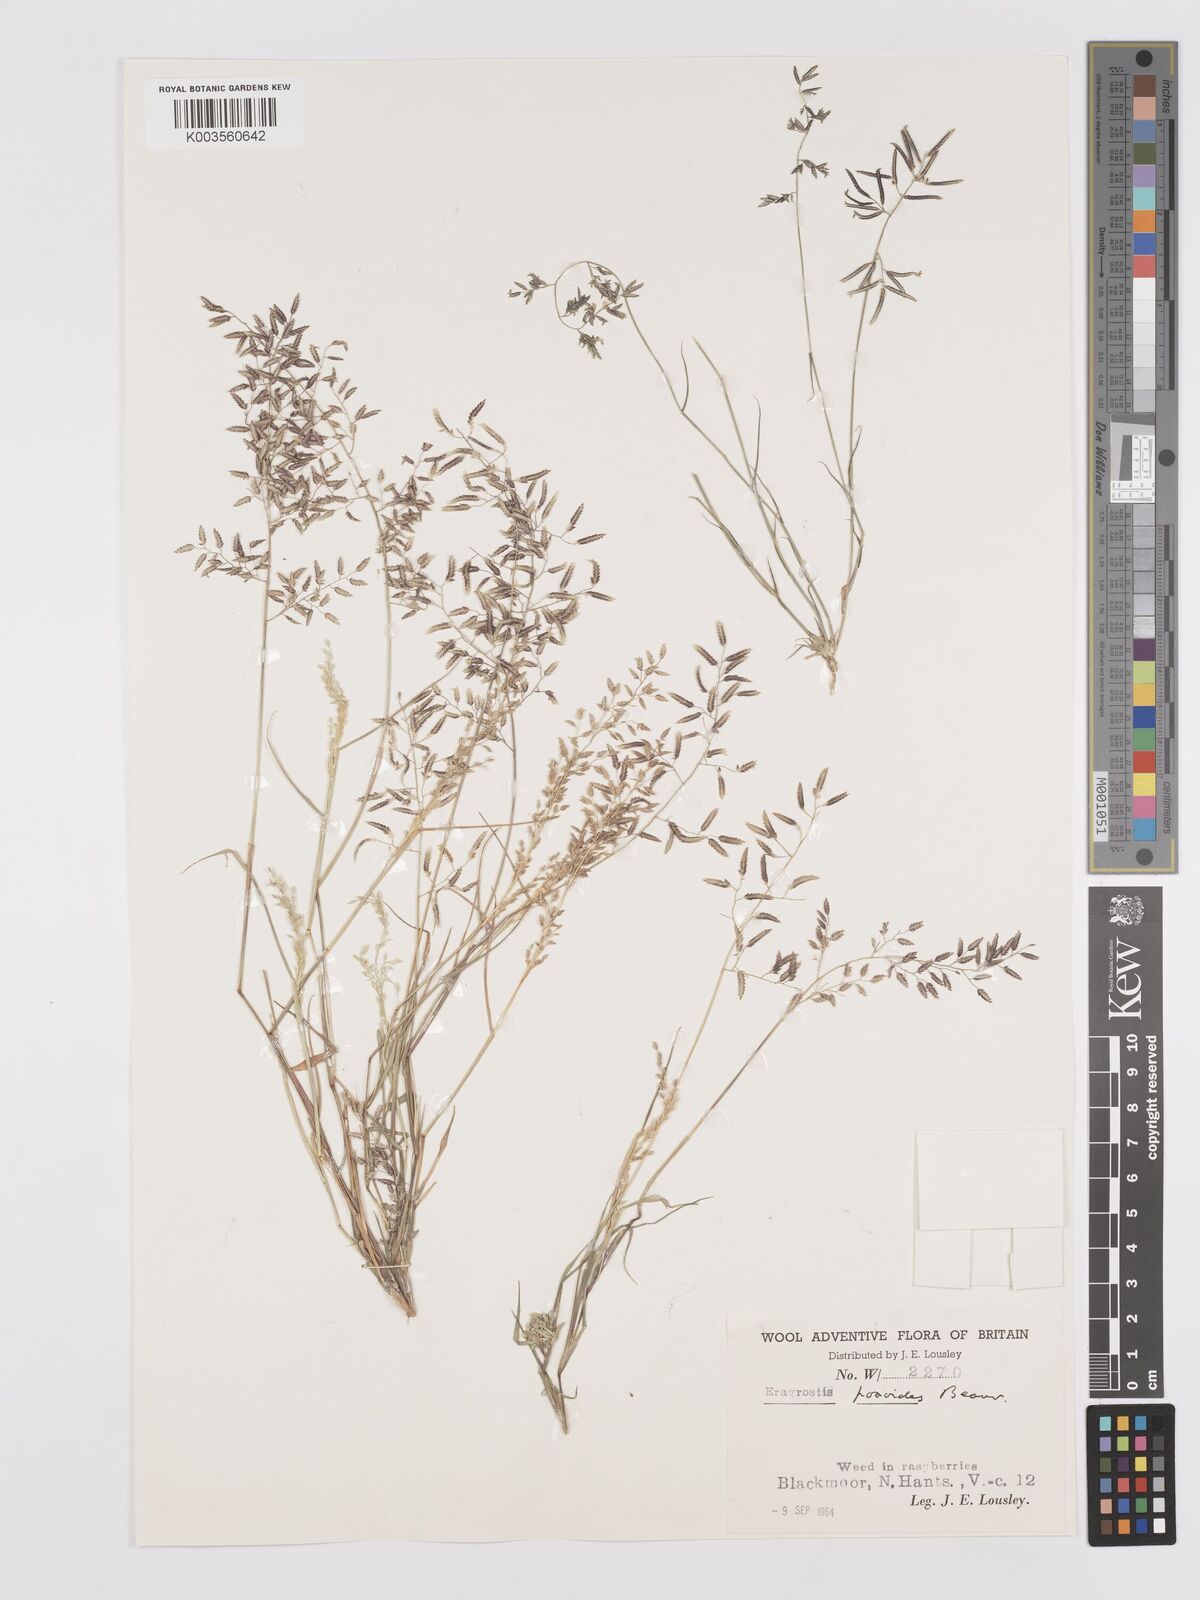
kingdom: Plantae
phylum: Tracheophyta
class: Liliopsida
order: Poales
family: Poaceae
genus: Eragrostis
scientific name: Eragrostis minor
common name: Small love-grass
